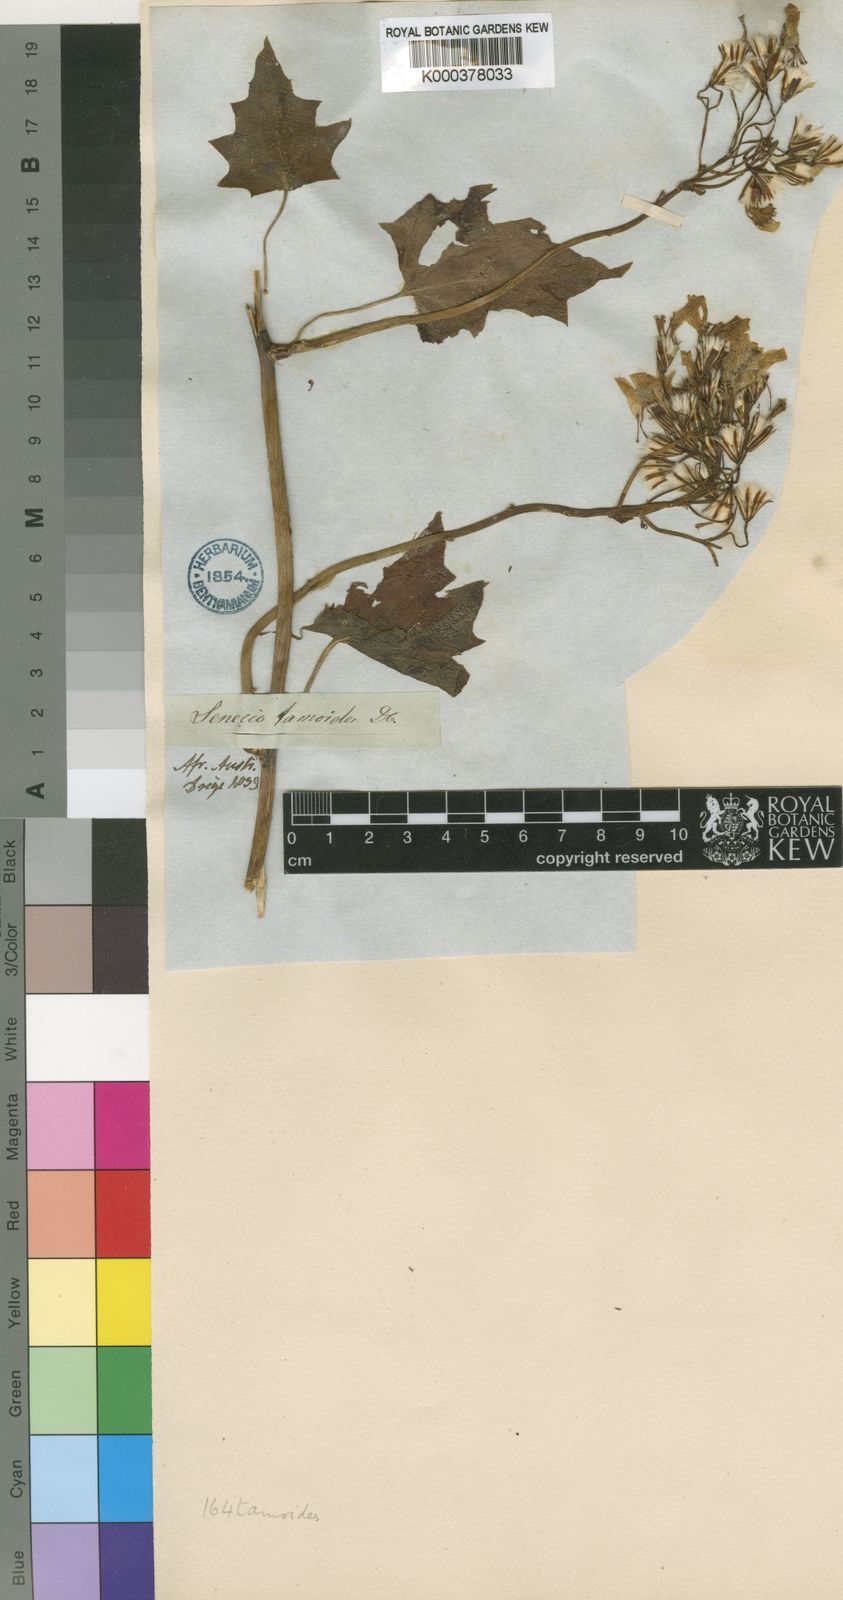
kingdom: Plantae
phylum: Tracheophyta
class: Magnoliopsida
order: Asterales
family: Asteraceae
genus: Senecio
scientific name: Senecio tamoides
